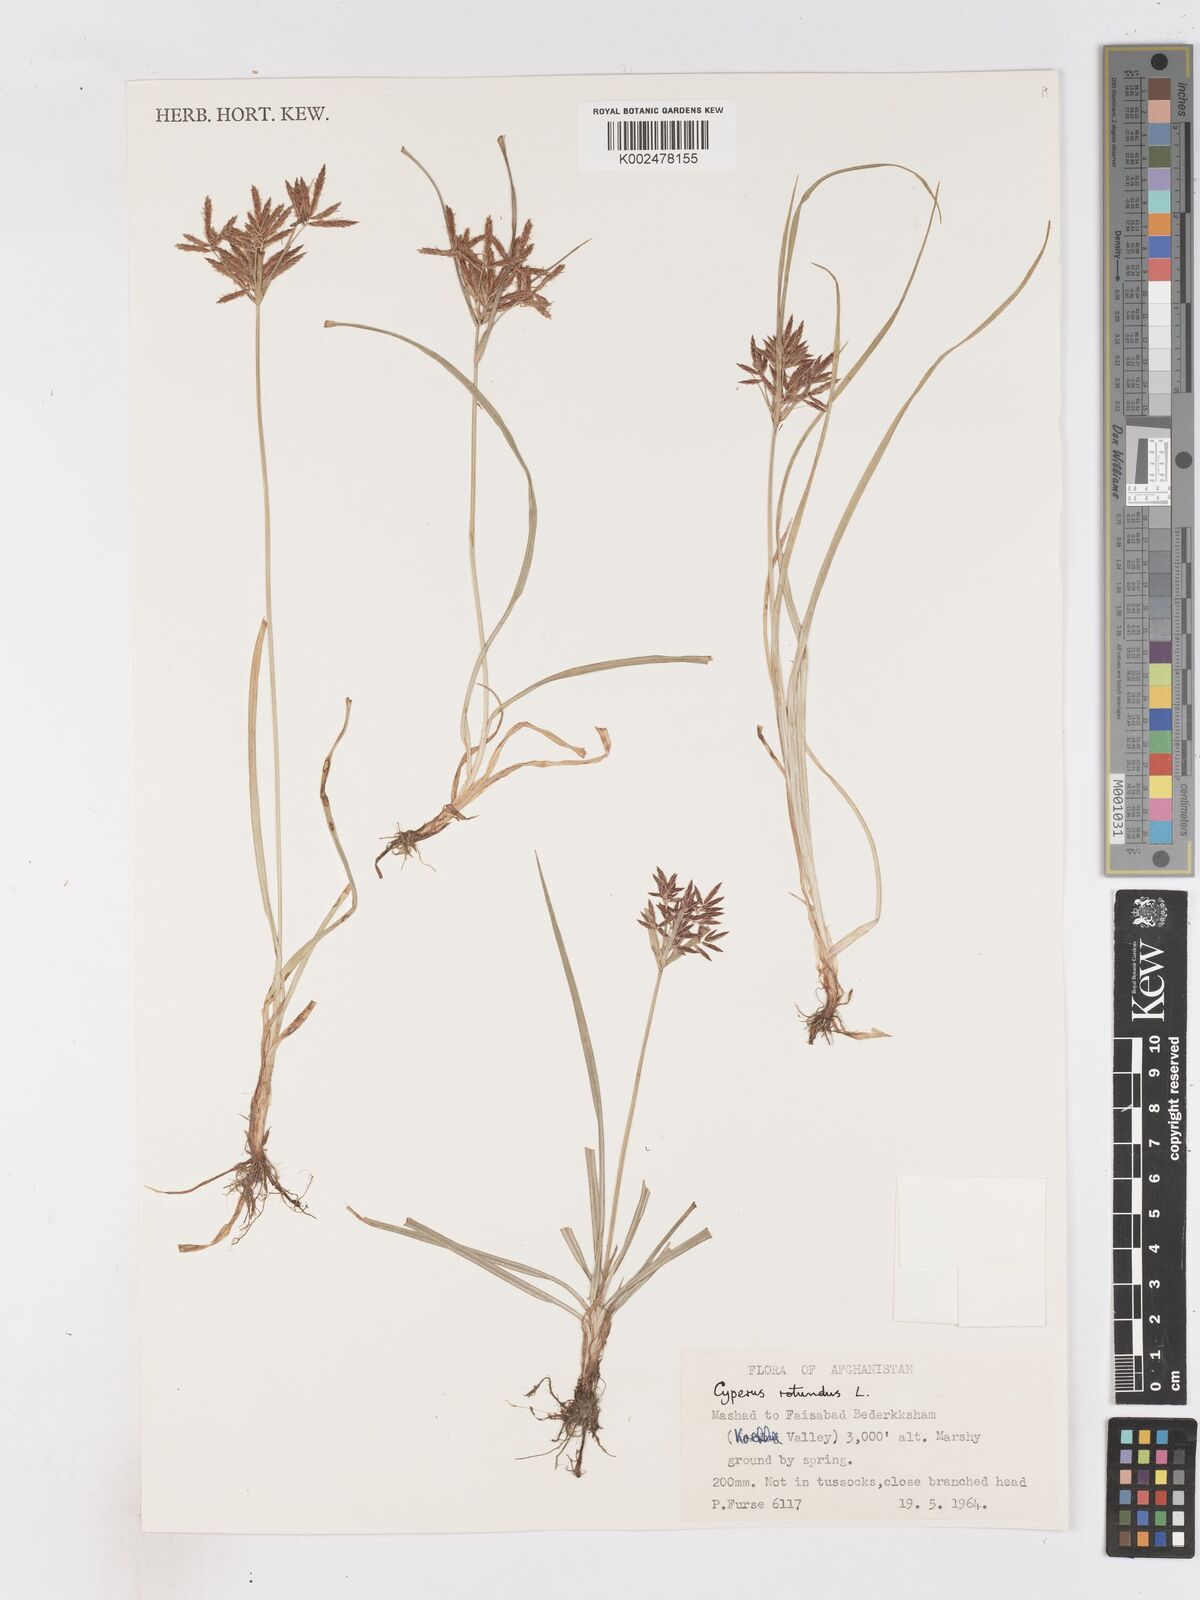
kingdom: Plantae
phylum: Tracheophyta
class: Liliopsida
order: Poales
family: Cyperaceae
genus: Cyperus
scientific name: Cyperus rotundus
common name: Nutgrass
